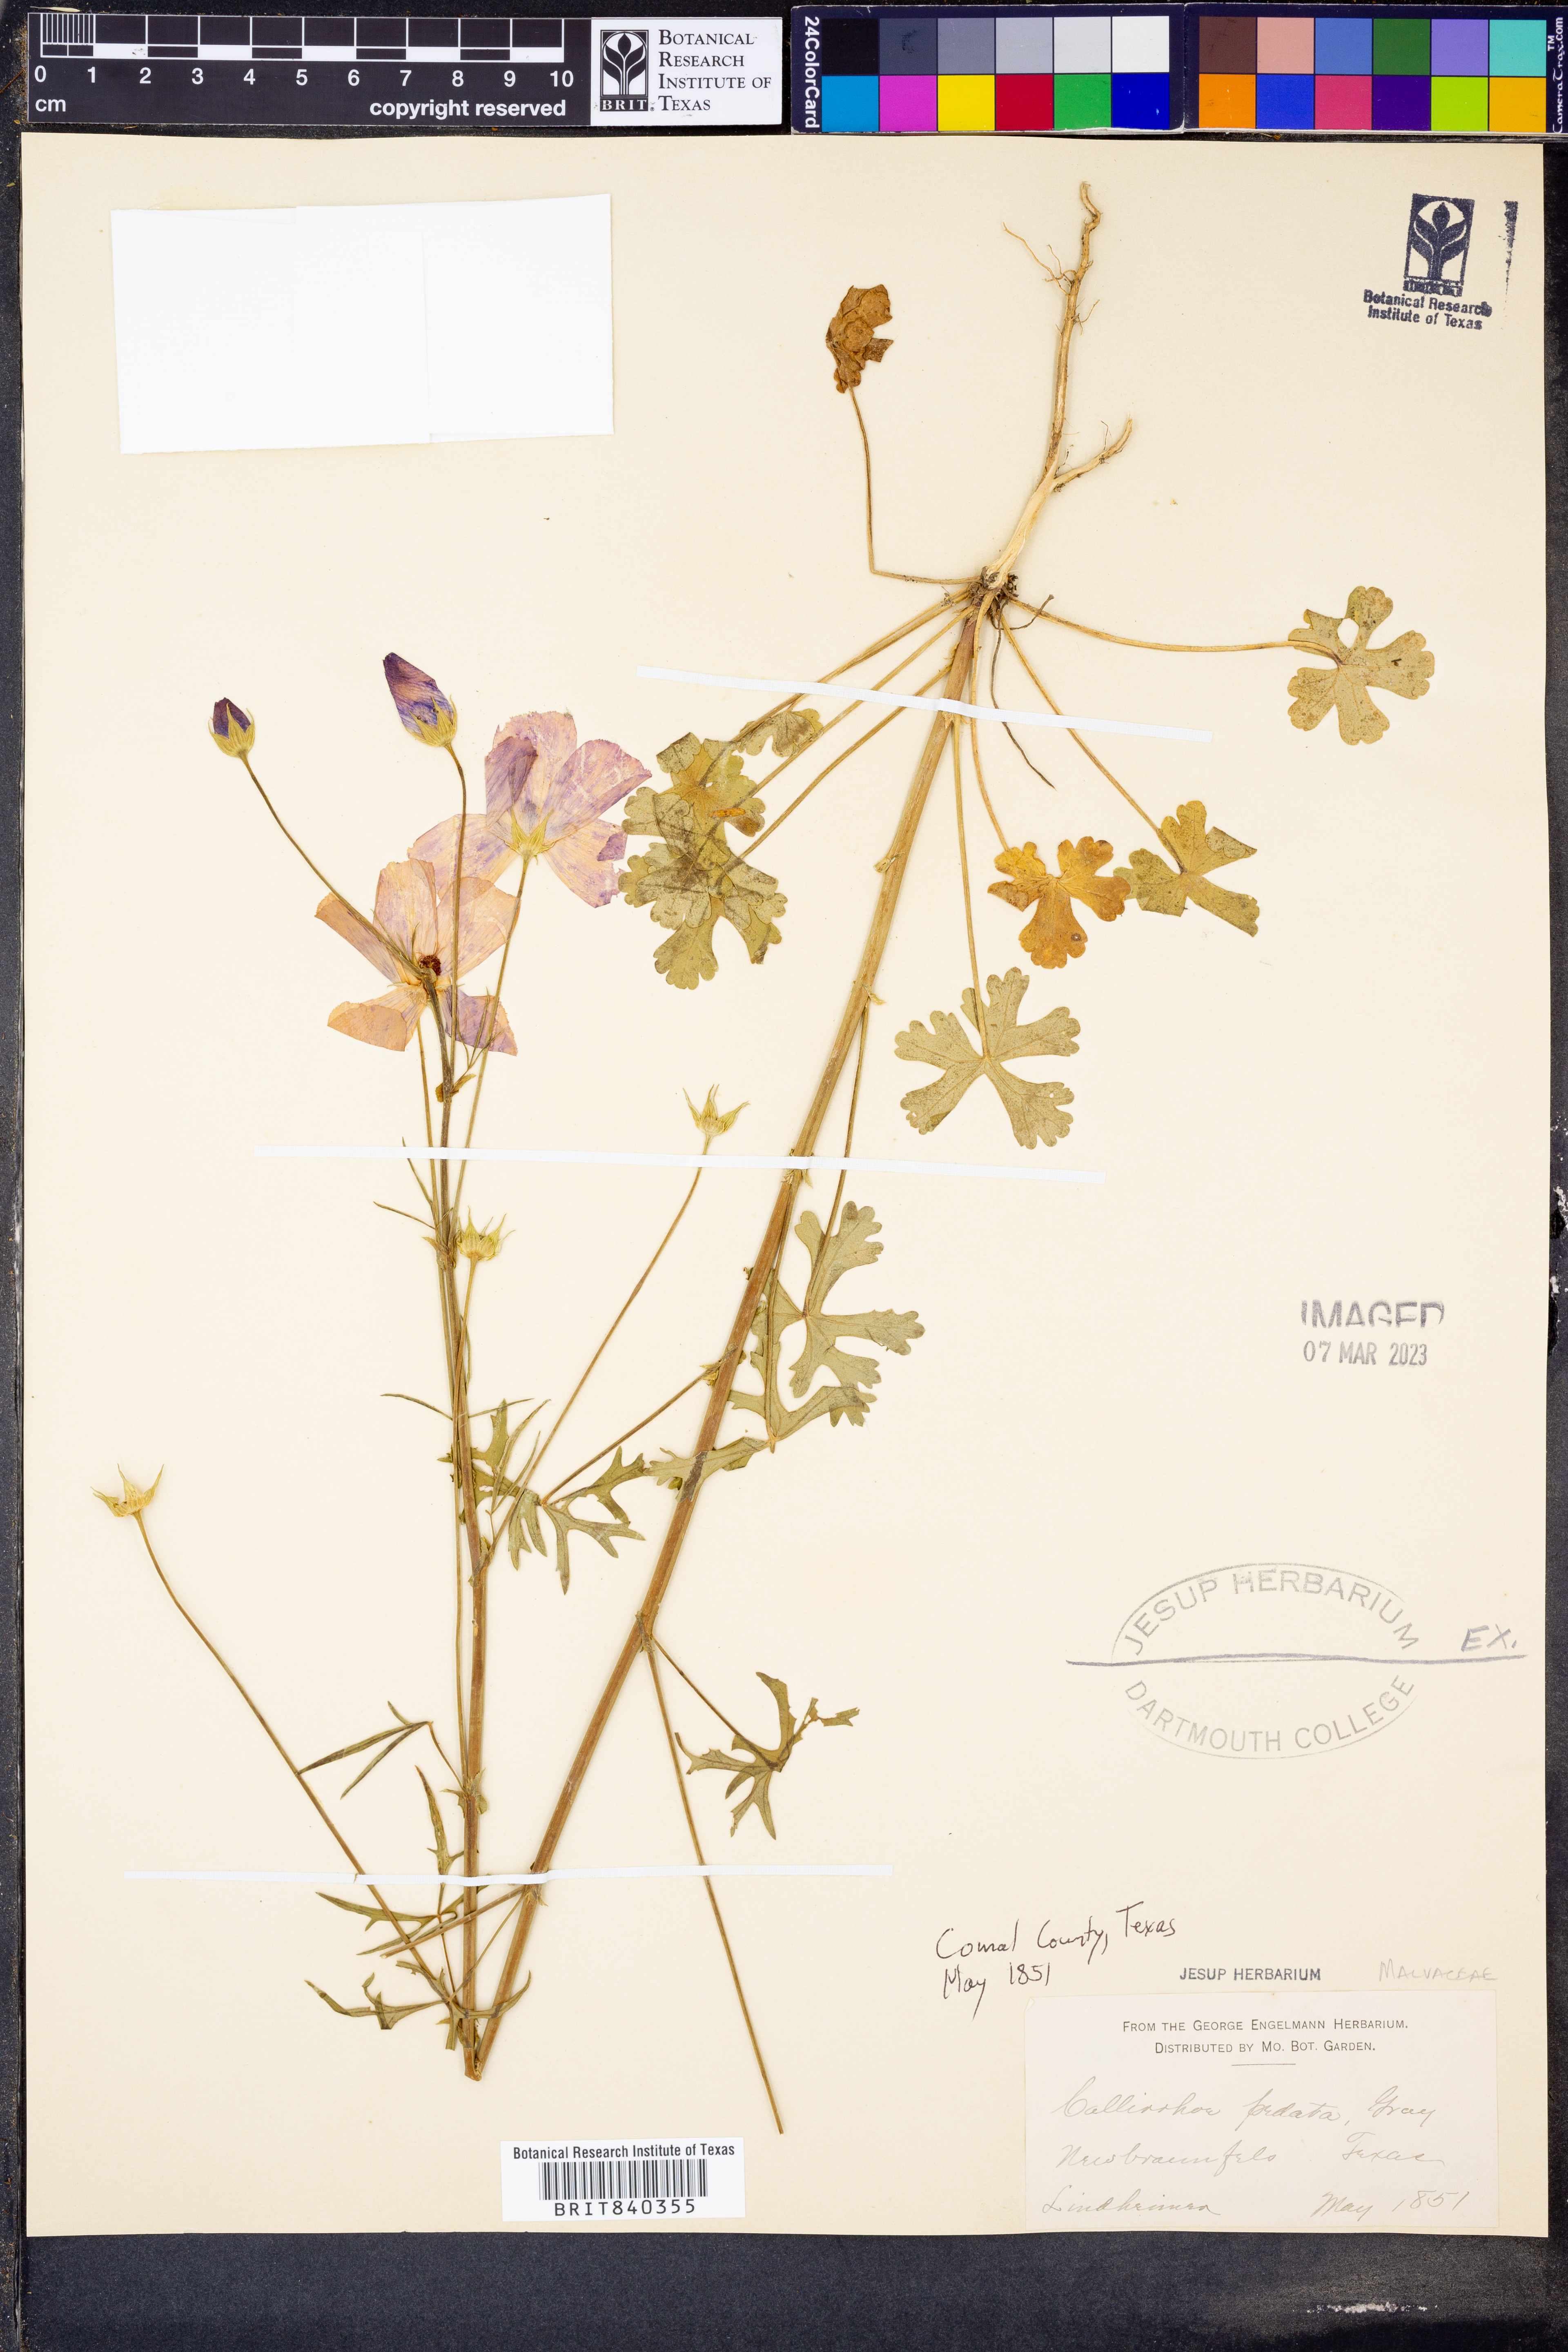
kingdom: Plantae
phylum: Tracheophyta
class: Magnoliopsida
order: Malvales
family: Malvaceae
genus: Callirhoe
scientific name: Callirhoe pedata
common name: Finger poppy-mallow
